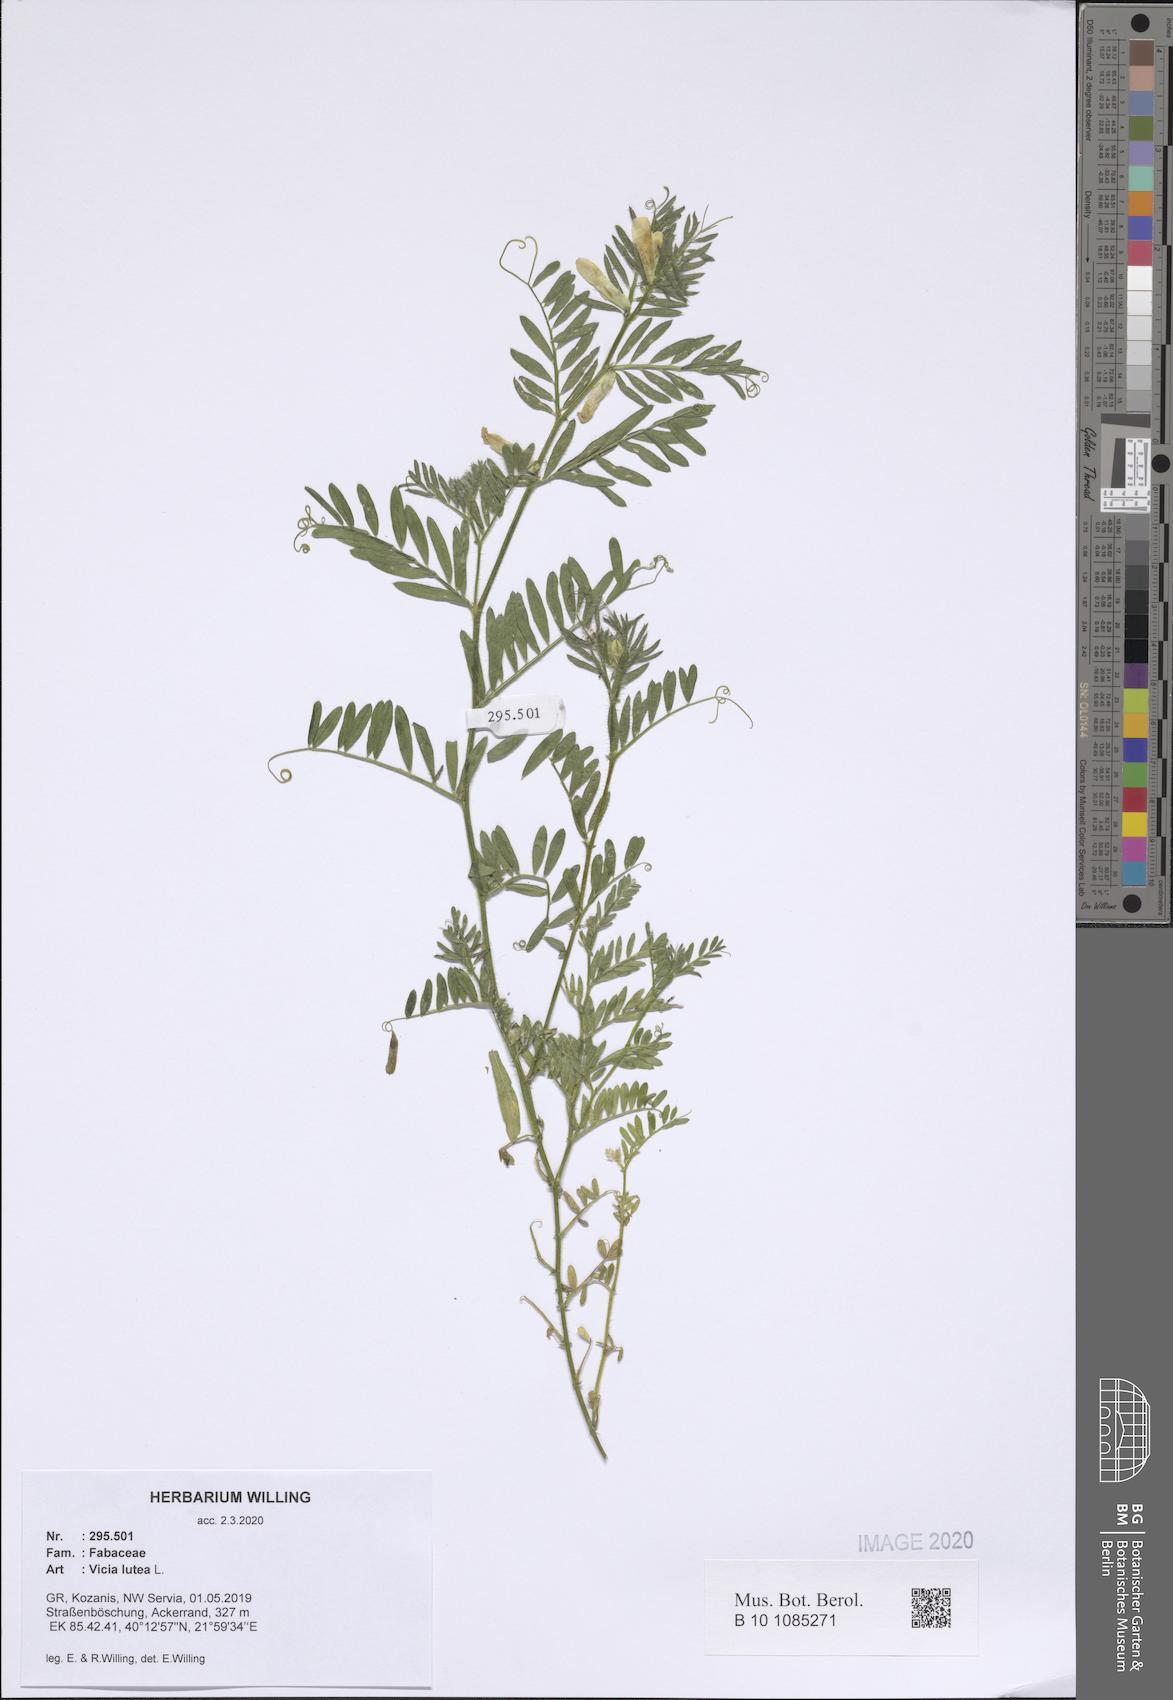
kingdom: Plantae
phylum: Tracheophyta
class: Magnoliopsida
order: Fabales
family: Fabaceae
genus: Vicia
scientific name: Vicia lutea
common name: Smooth yellow vetch
